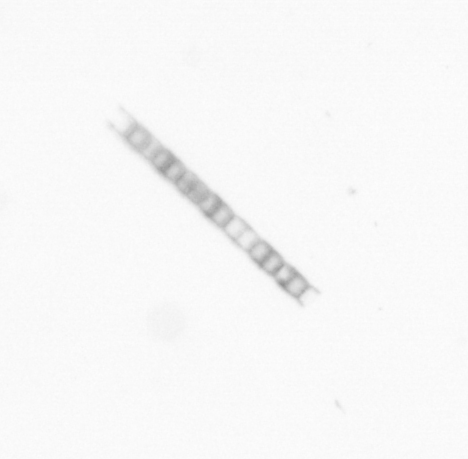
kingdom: Chromista
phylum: Ochrophyta
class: Bacillariophyceae
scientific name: Bacillariophyceae
